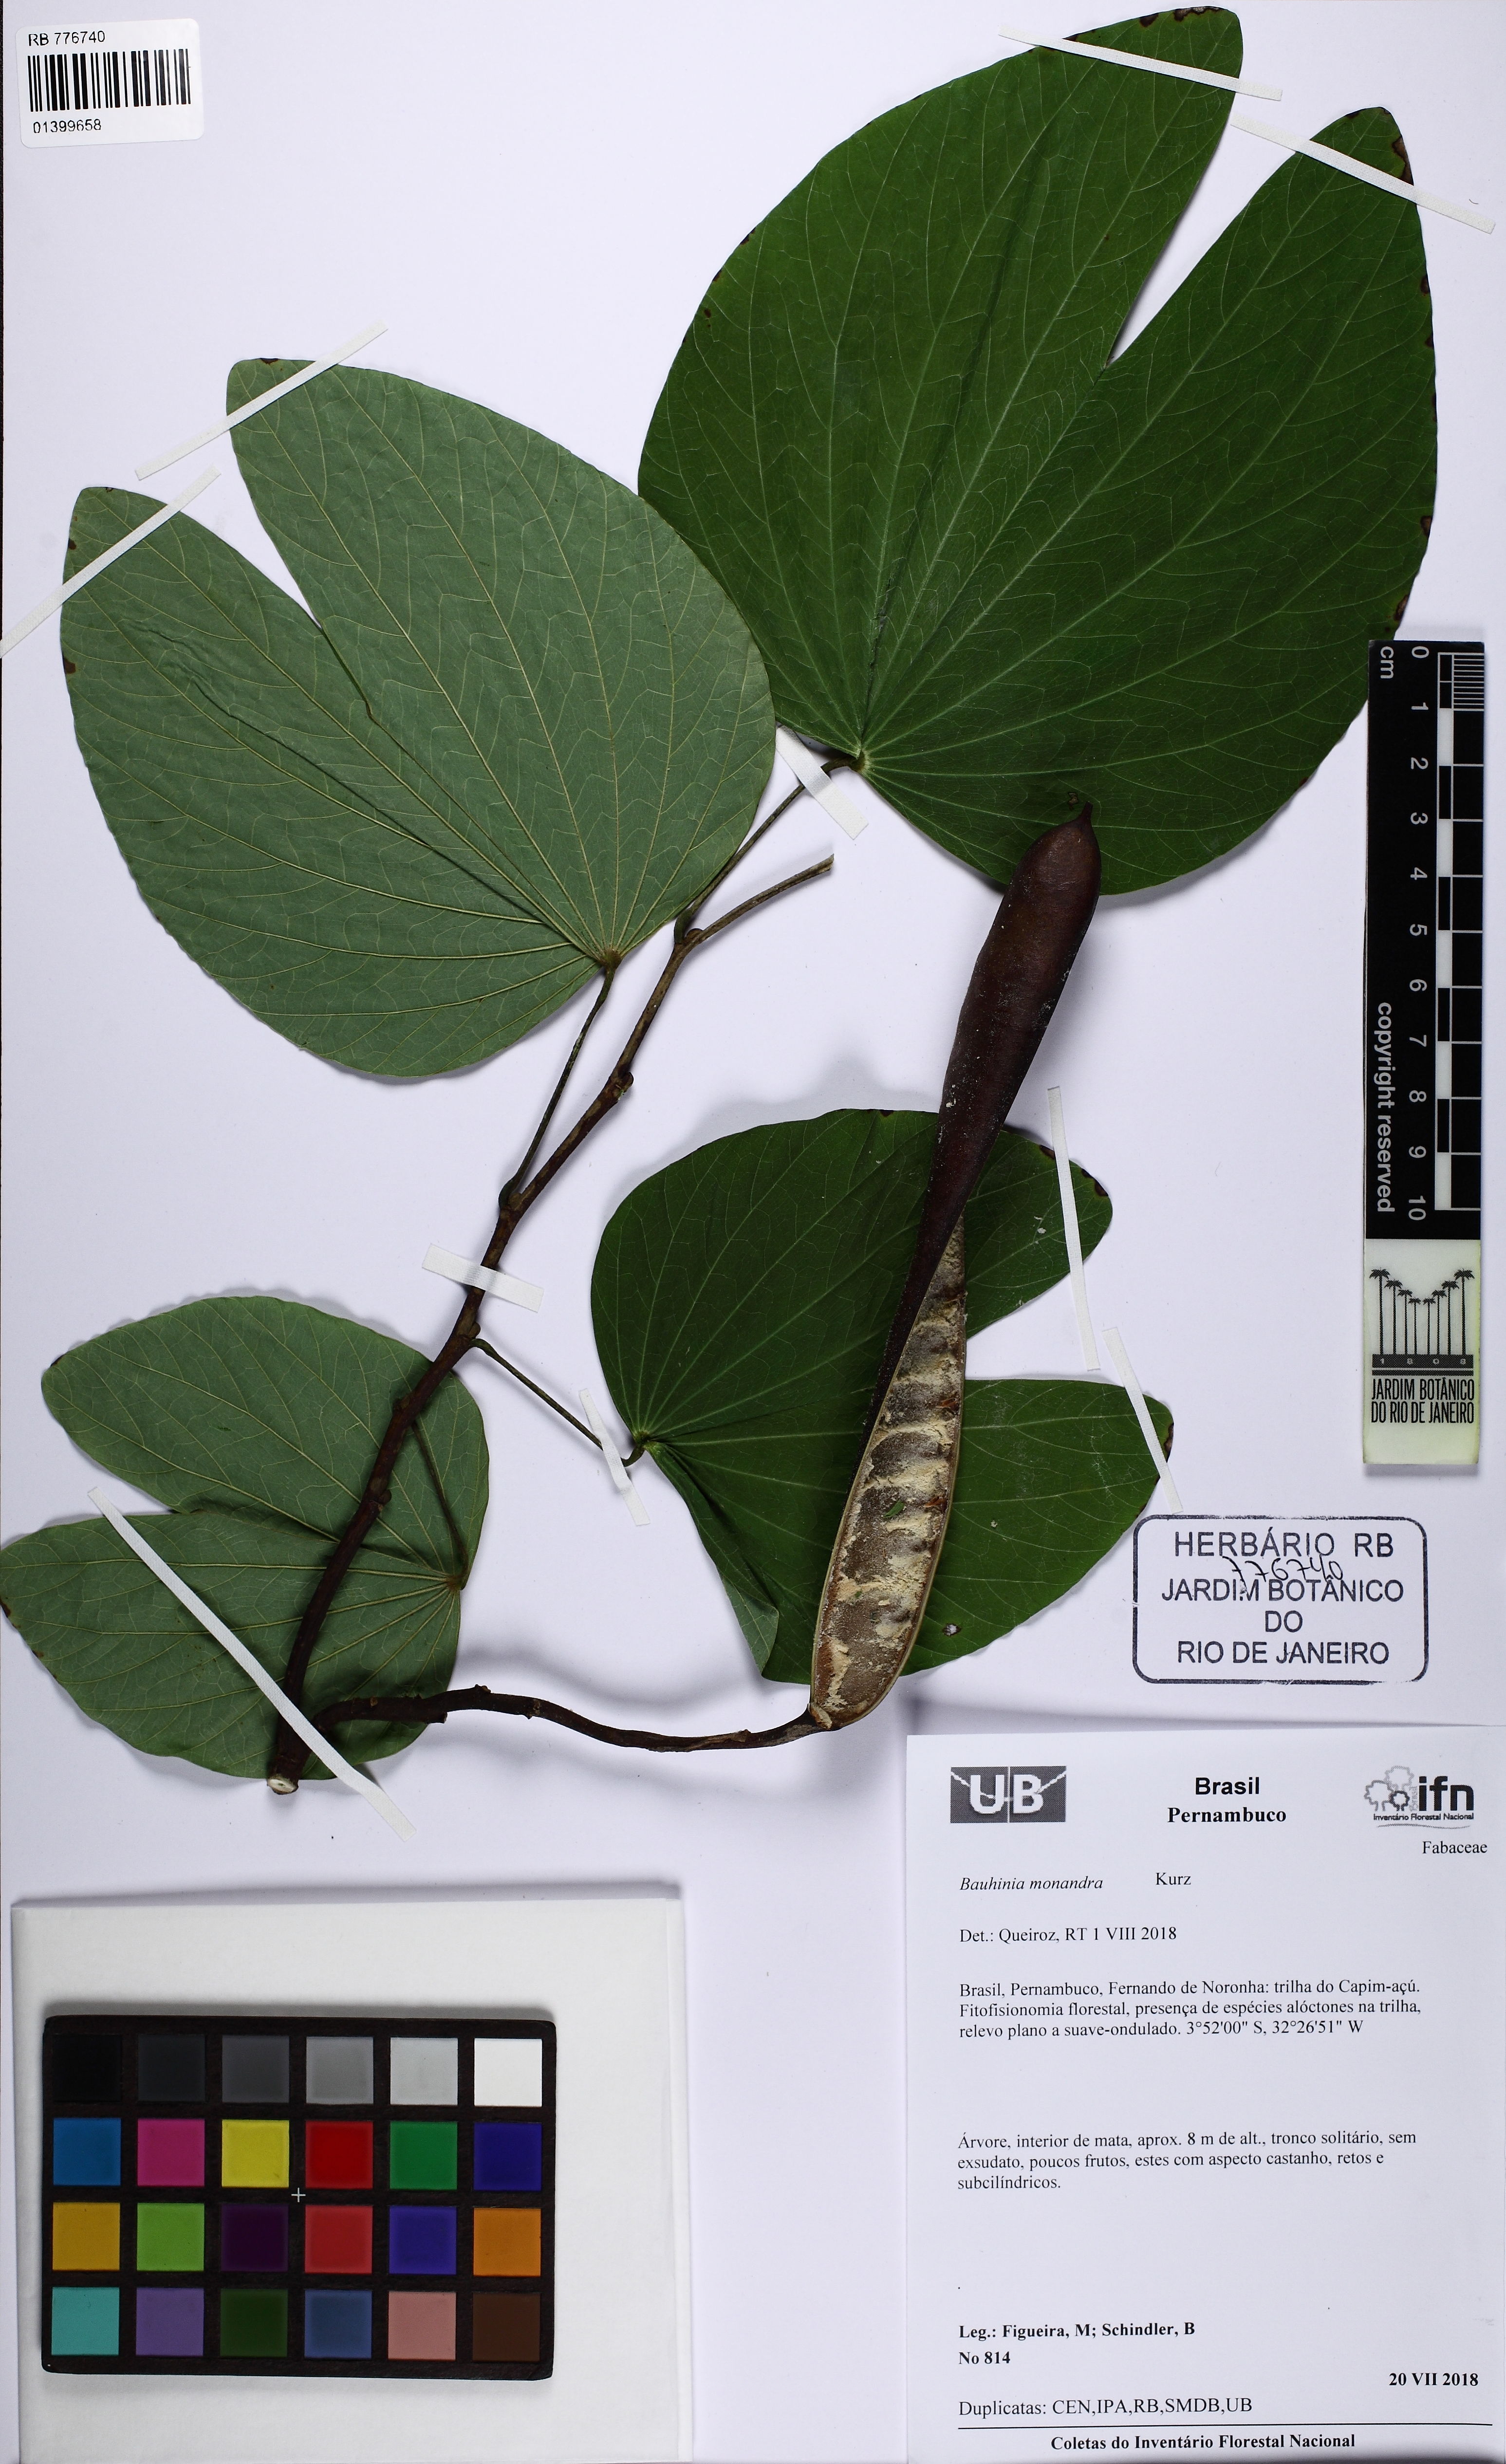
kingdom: Plantae
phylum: Tracheophyta
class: Magnoliopsida
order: Fabales
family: Fabaceae
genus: Bauhinia
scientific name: Bauhinia monandra
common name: Napoleon's plume
